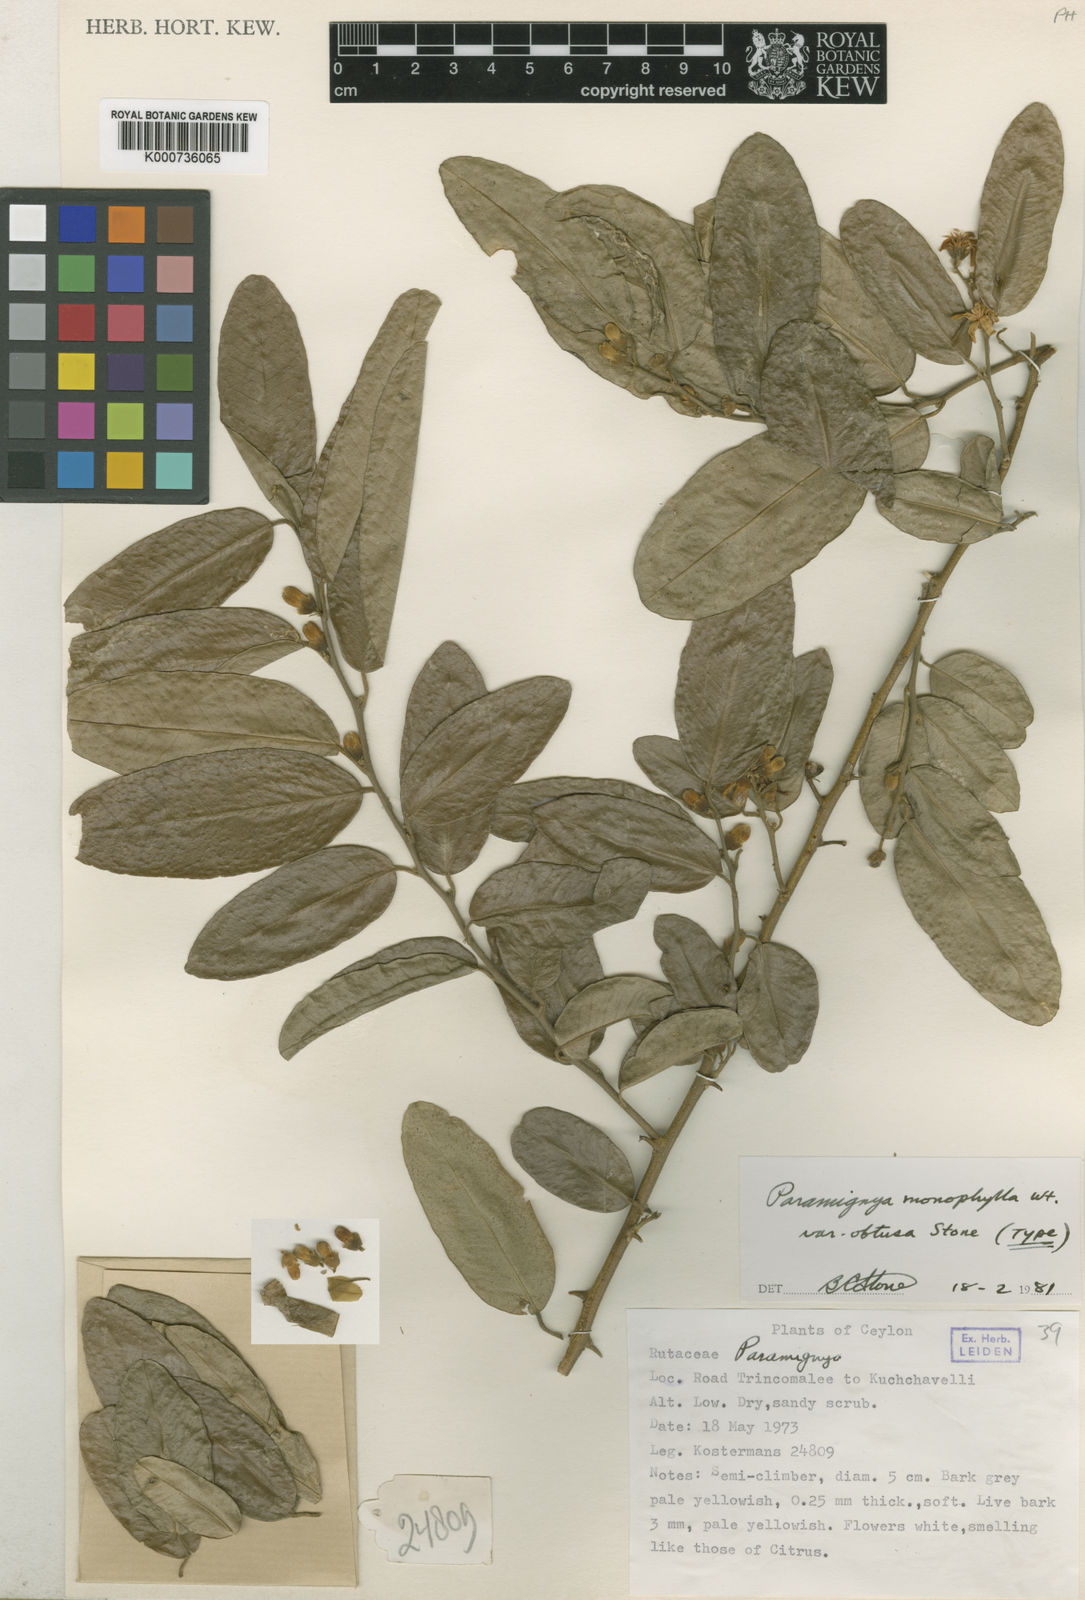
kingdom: Plantae
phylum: Tracheophyta
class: Magnoliopsida
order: Sapindales
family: Rutaceae
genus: Paramignya
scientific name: Paramignya monophylla
